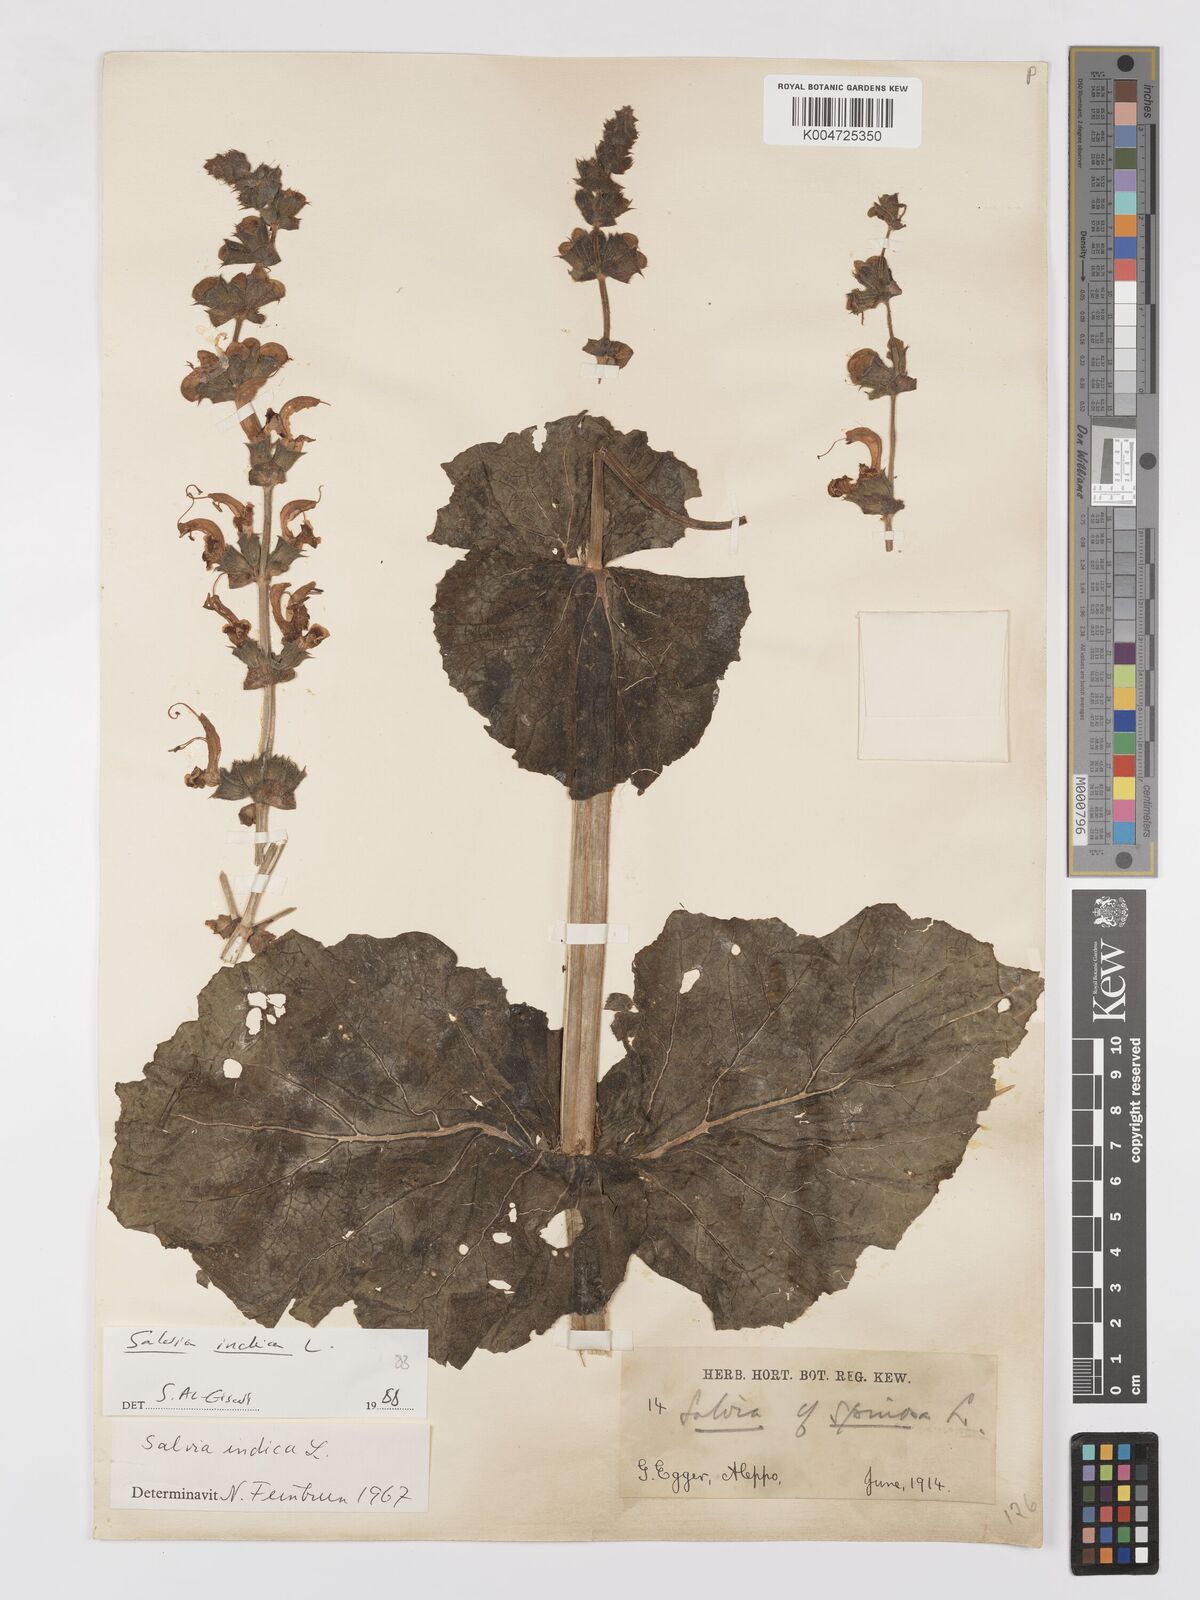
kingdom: Plantae
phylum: Tracheophyta
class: Magnoliopsida
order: Lamiales
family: Lamiaceae
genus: Salvia
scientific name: Salvia indica
